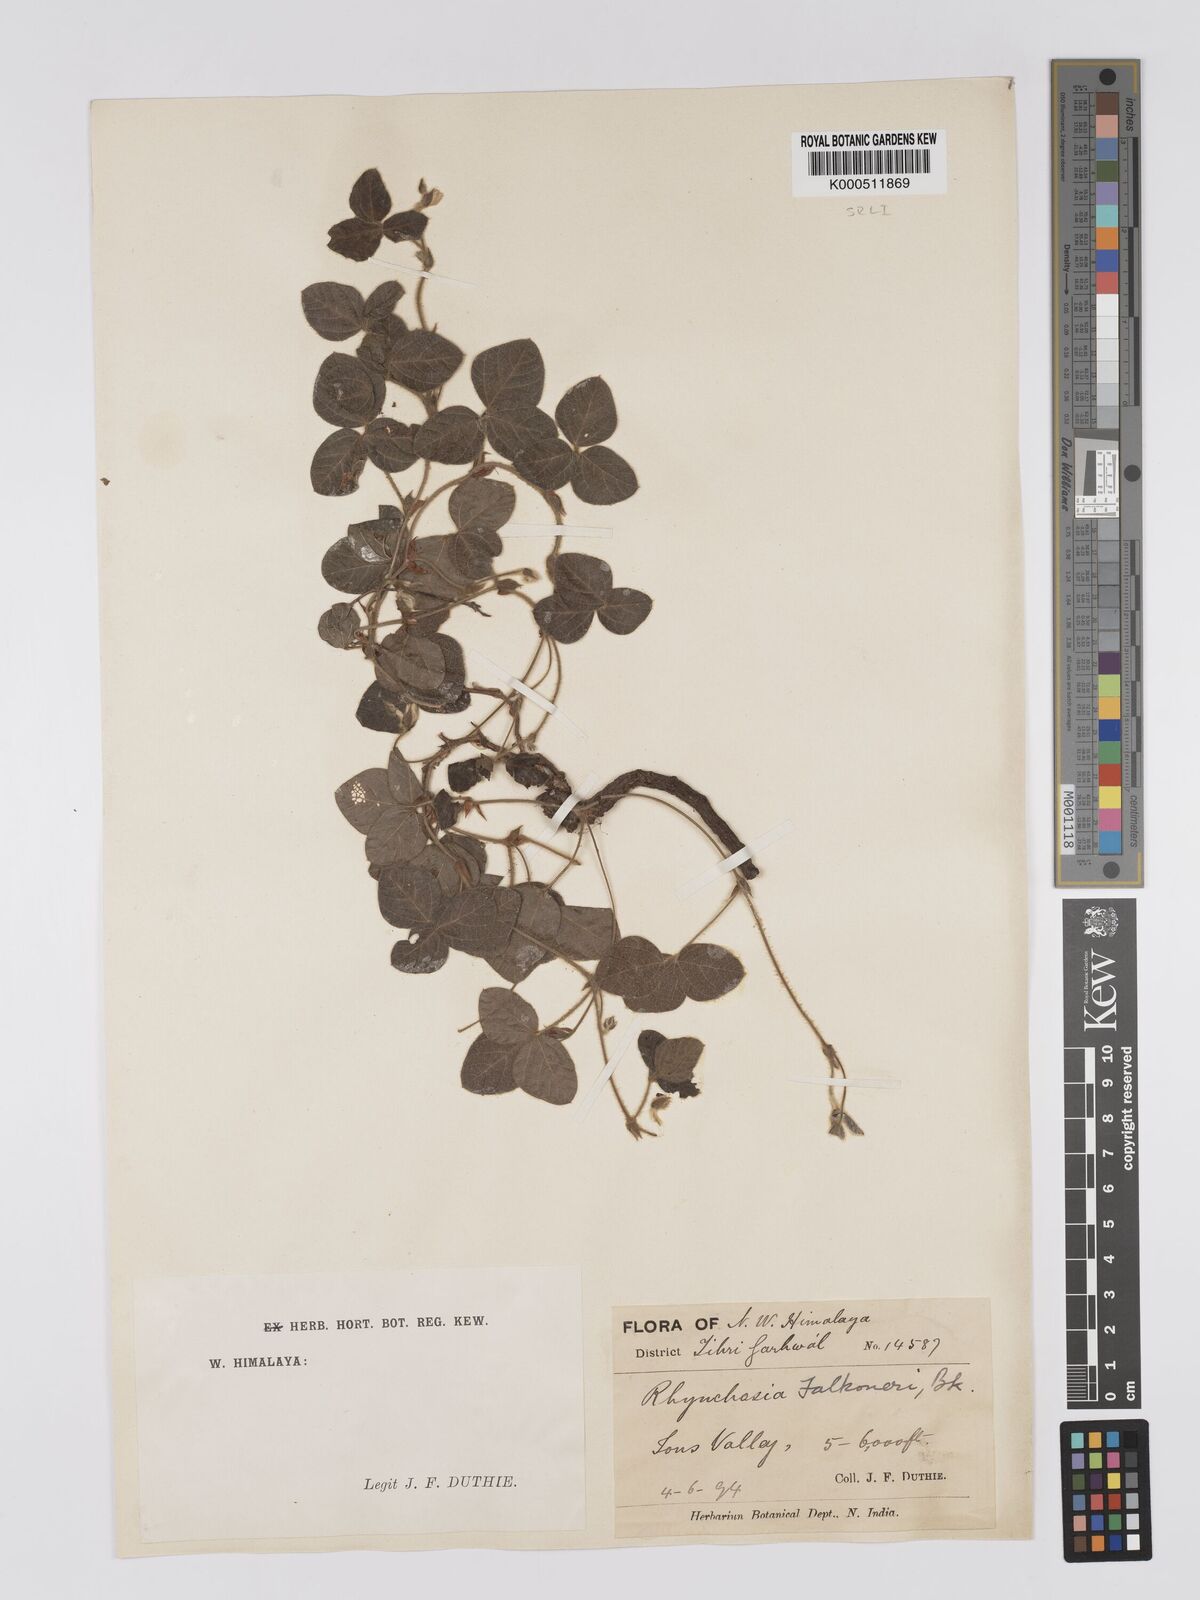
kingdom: Plantae
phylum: Tracheophyta
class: Magnoliopsida
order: Fabales
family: Fabaceae
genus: Rhynchosia
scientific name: Rhynchosia falconeri
